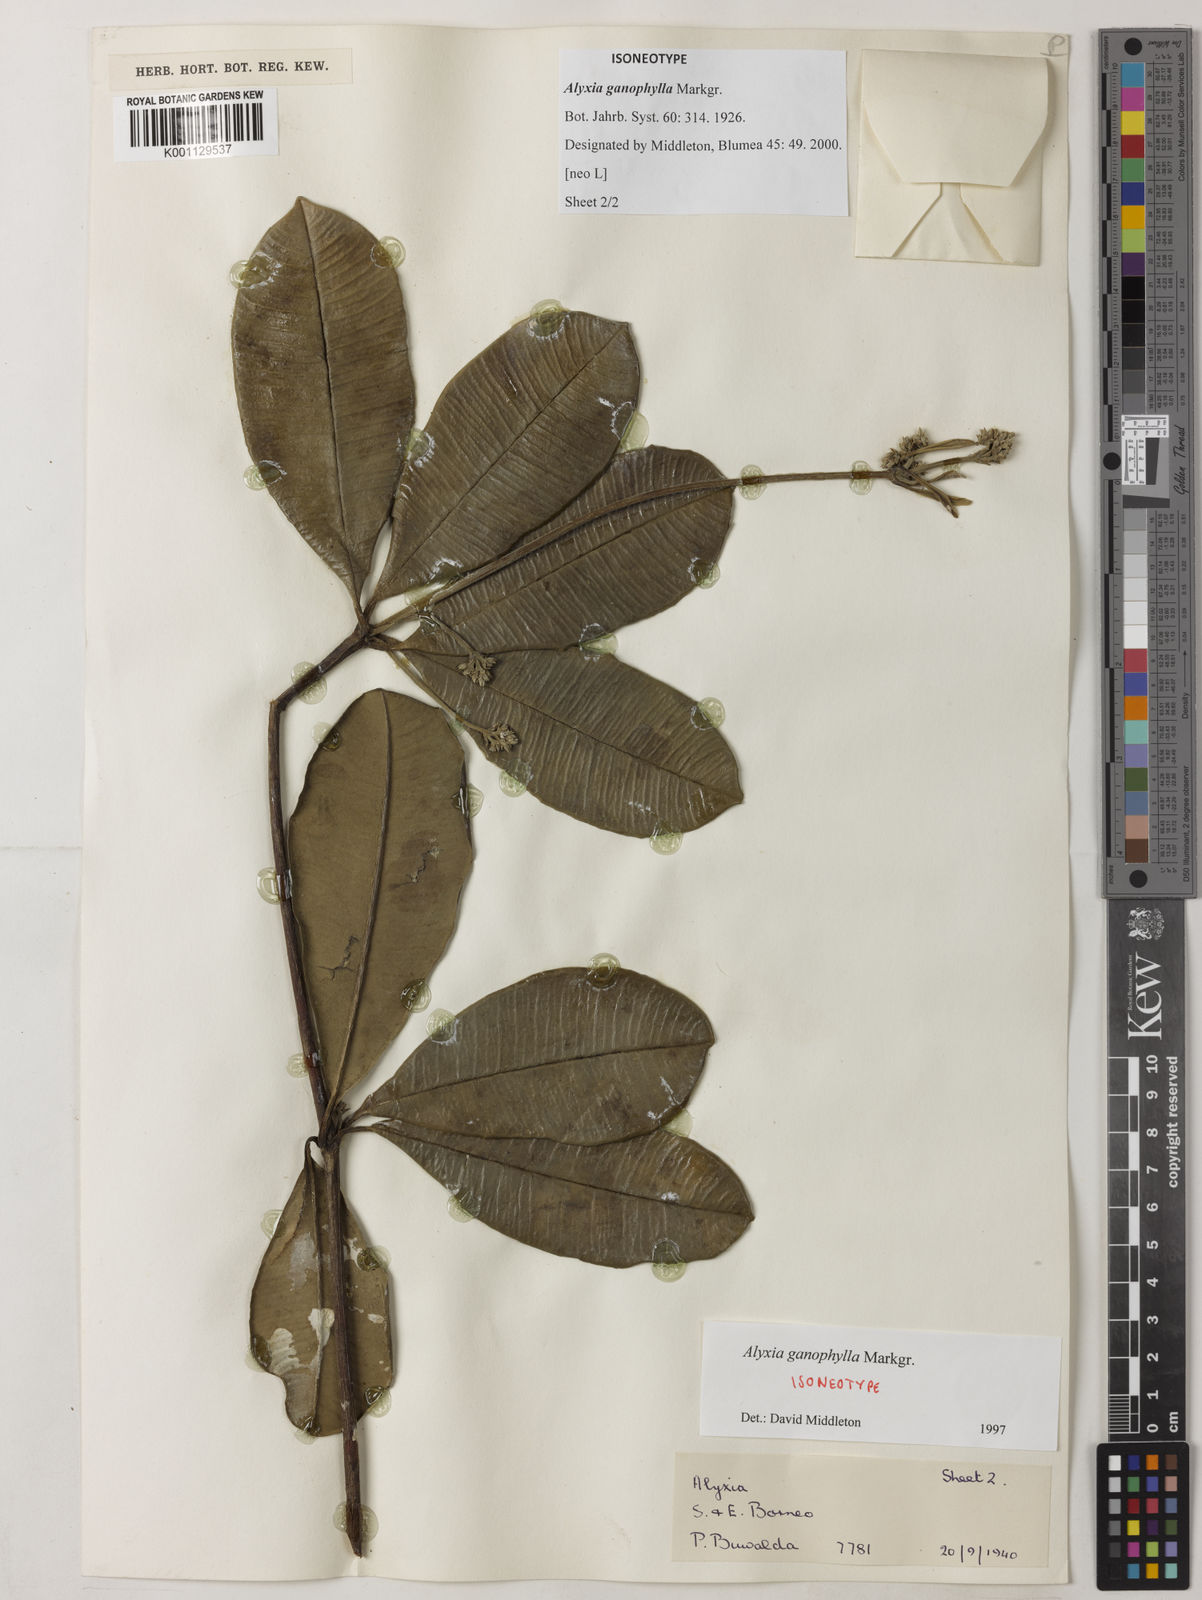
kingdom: Plantae
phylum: Tracheophyta
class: Magnoliopsida
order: Gentianales
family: Apocynaceae
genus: Alyxia
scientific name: Alyxia ganophylla
